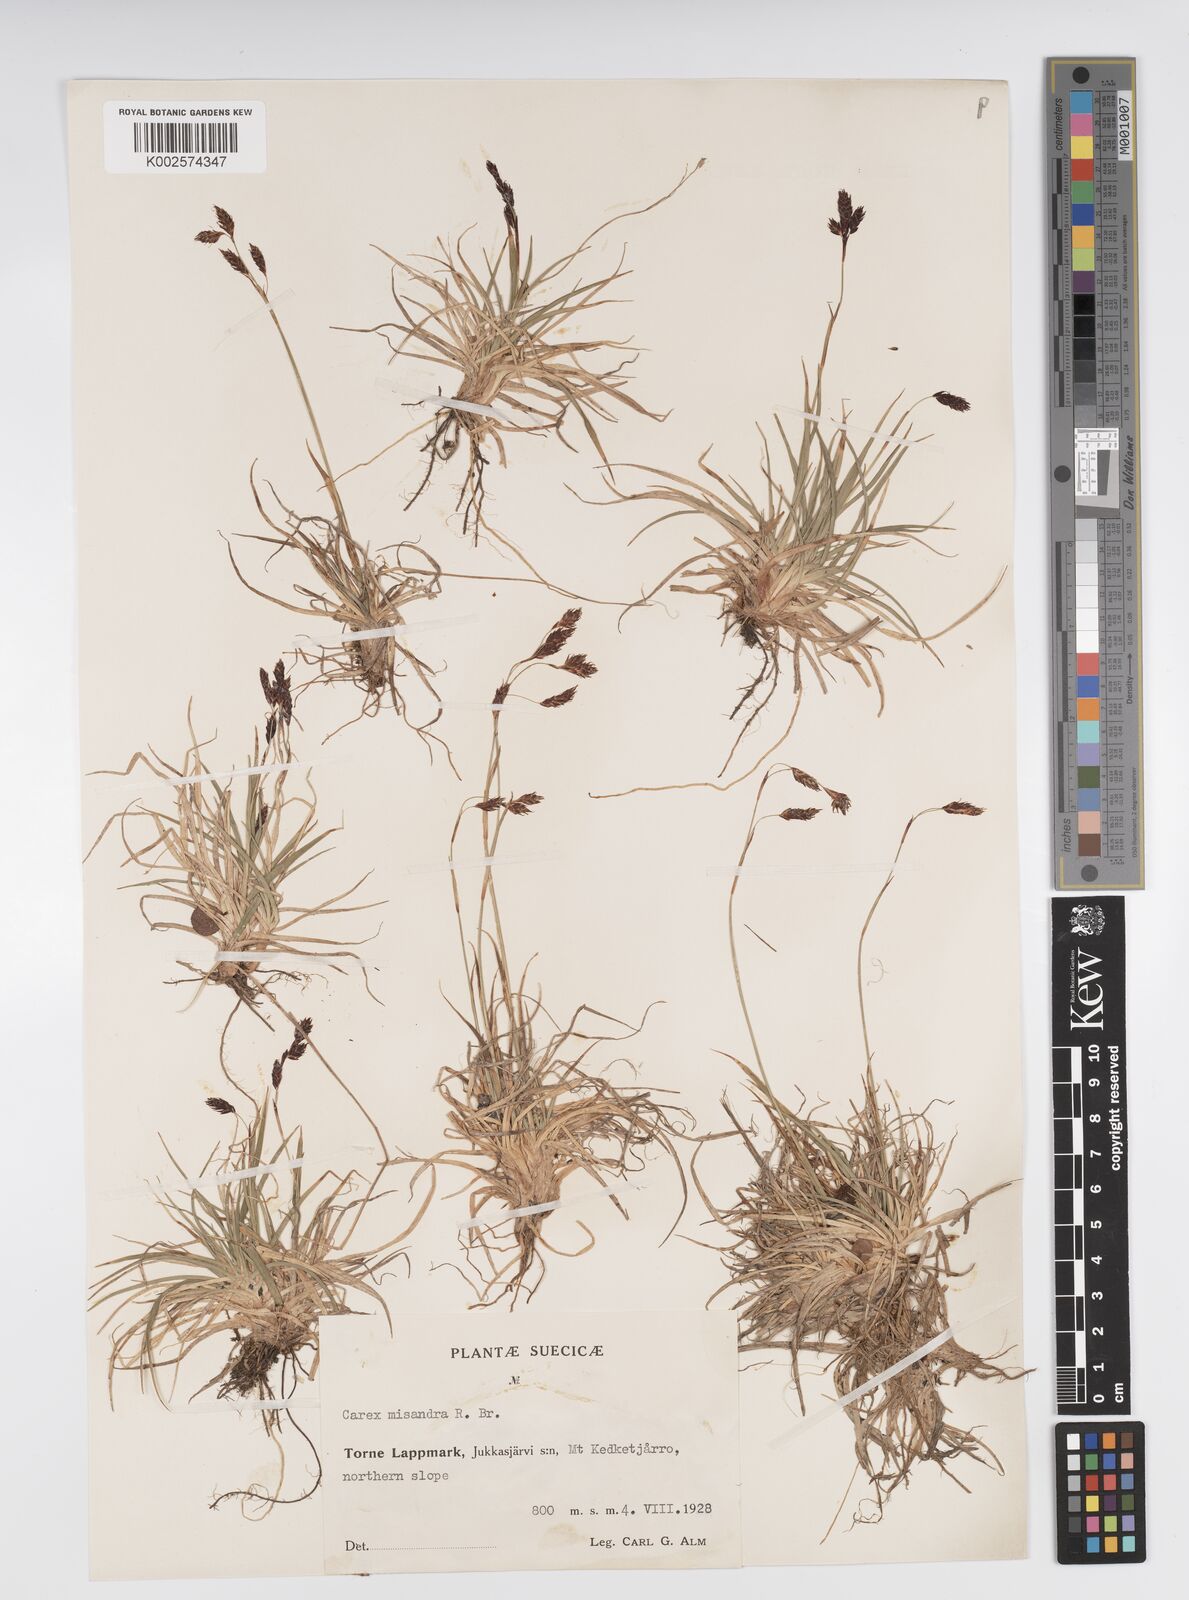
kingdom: Plantae
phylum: Tracheophyta
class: Liliopsida
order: Poales
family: Cyperaceae
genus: Carex
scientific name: Carex fuliginosa
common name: Few-flowered sedge
